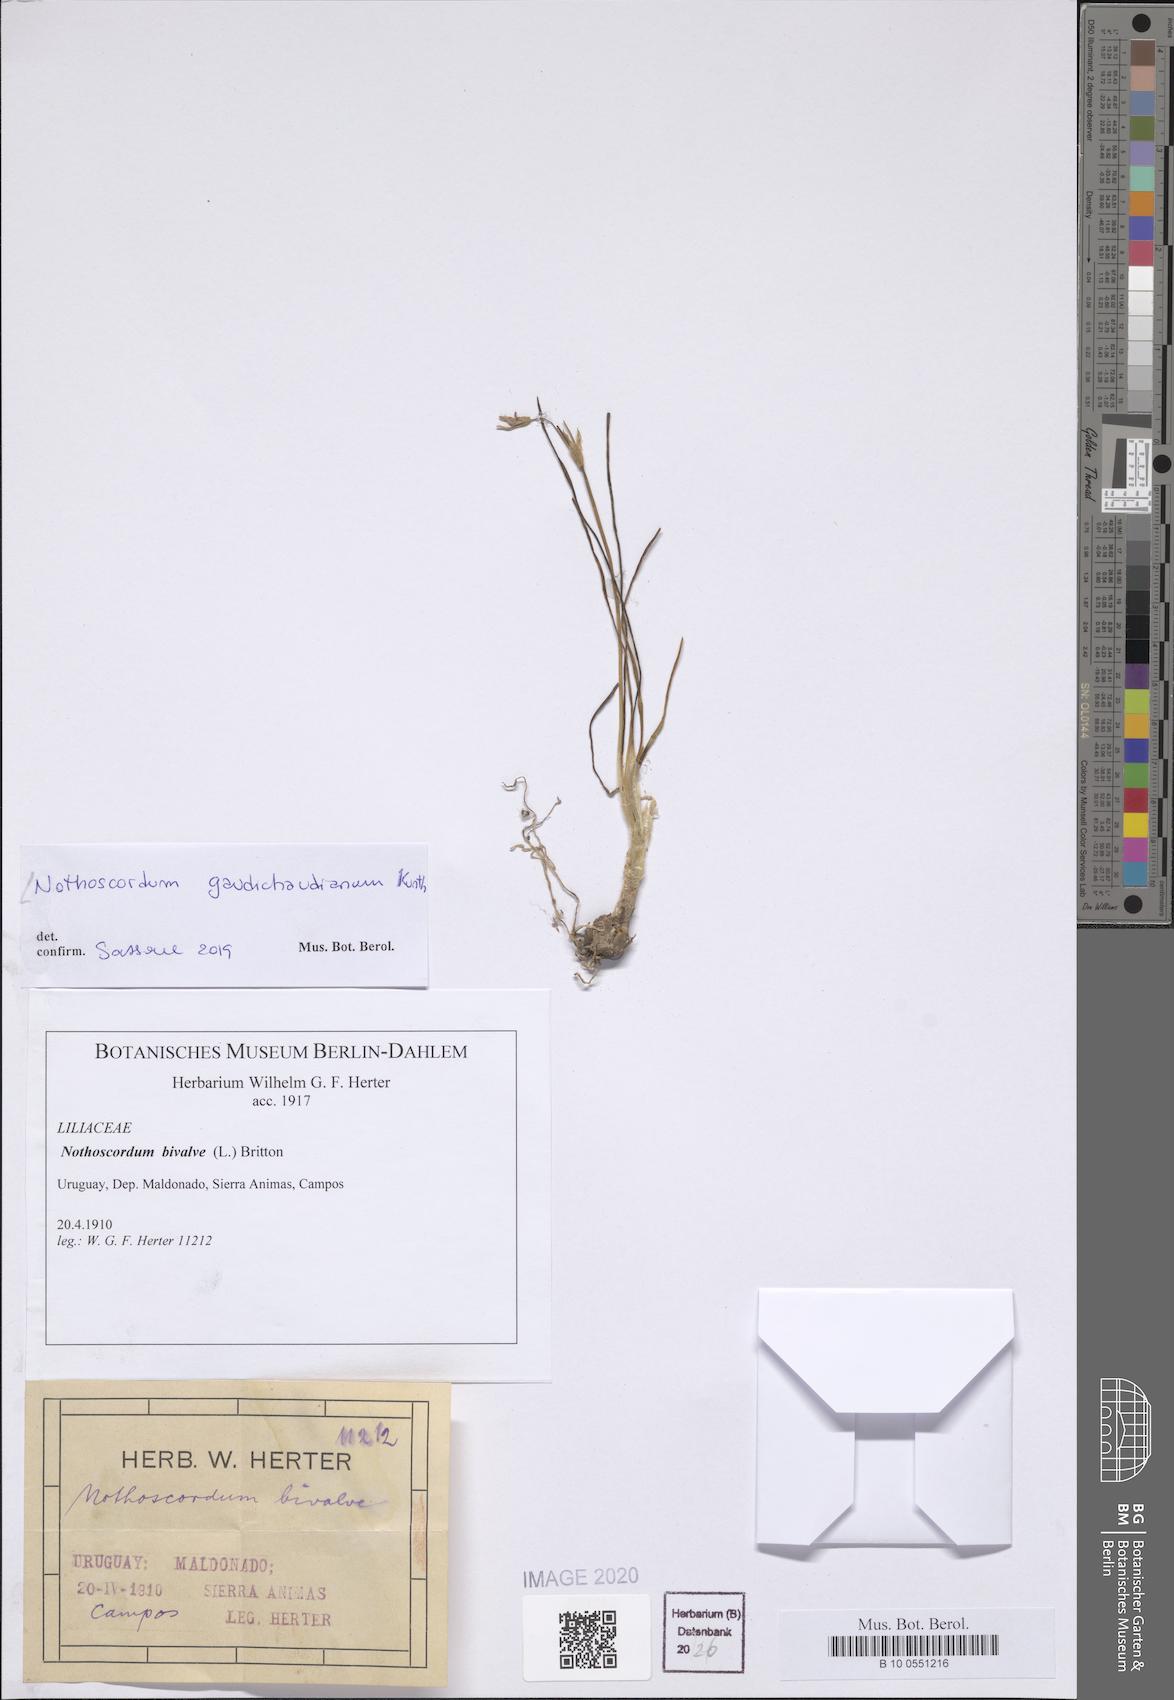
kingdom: Plantae
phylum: Tracheophyta
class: Liliopsida
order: Asparagales
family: Amaryllidaceae
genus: Nothoscordum
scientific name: Nothoscordum gaudichaudianum
